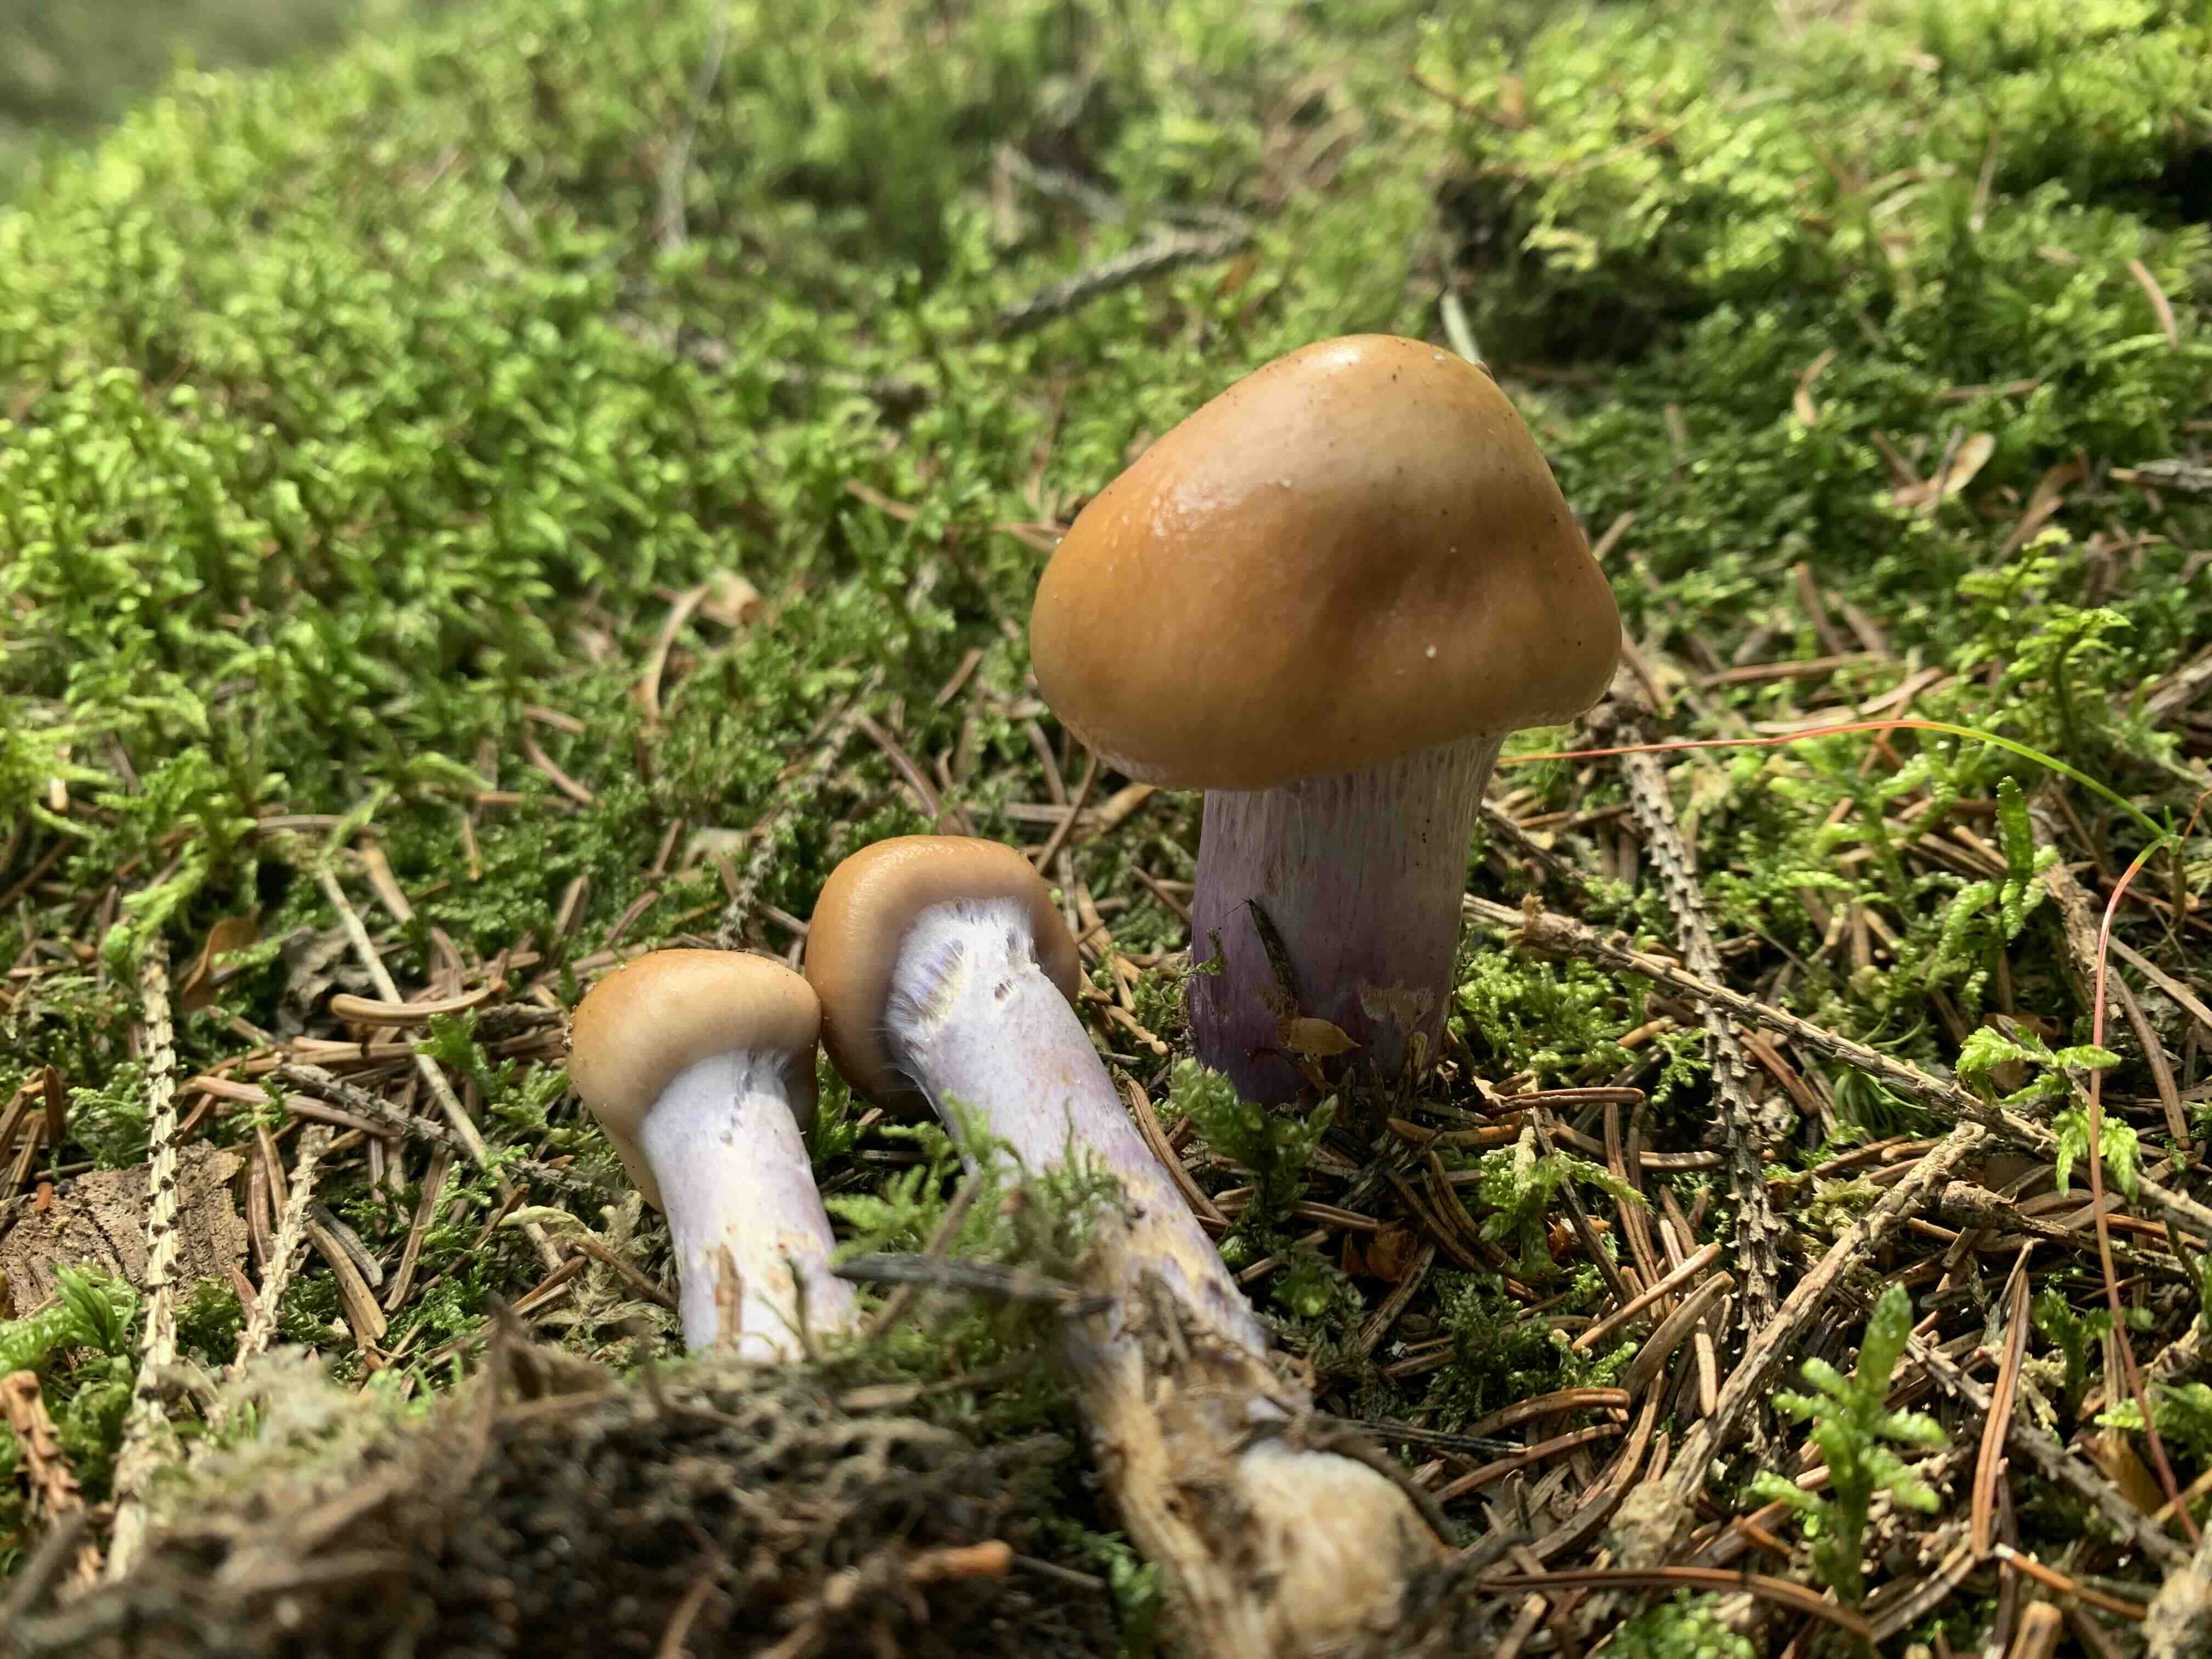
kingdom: Fungi
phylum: Basidiomycota
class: Agaricomycetes
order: Agaricales
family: Cortinariaceae
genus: Cortinarius
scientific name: Cortinarius collinitus
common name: spættet slørhat
